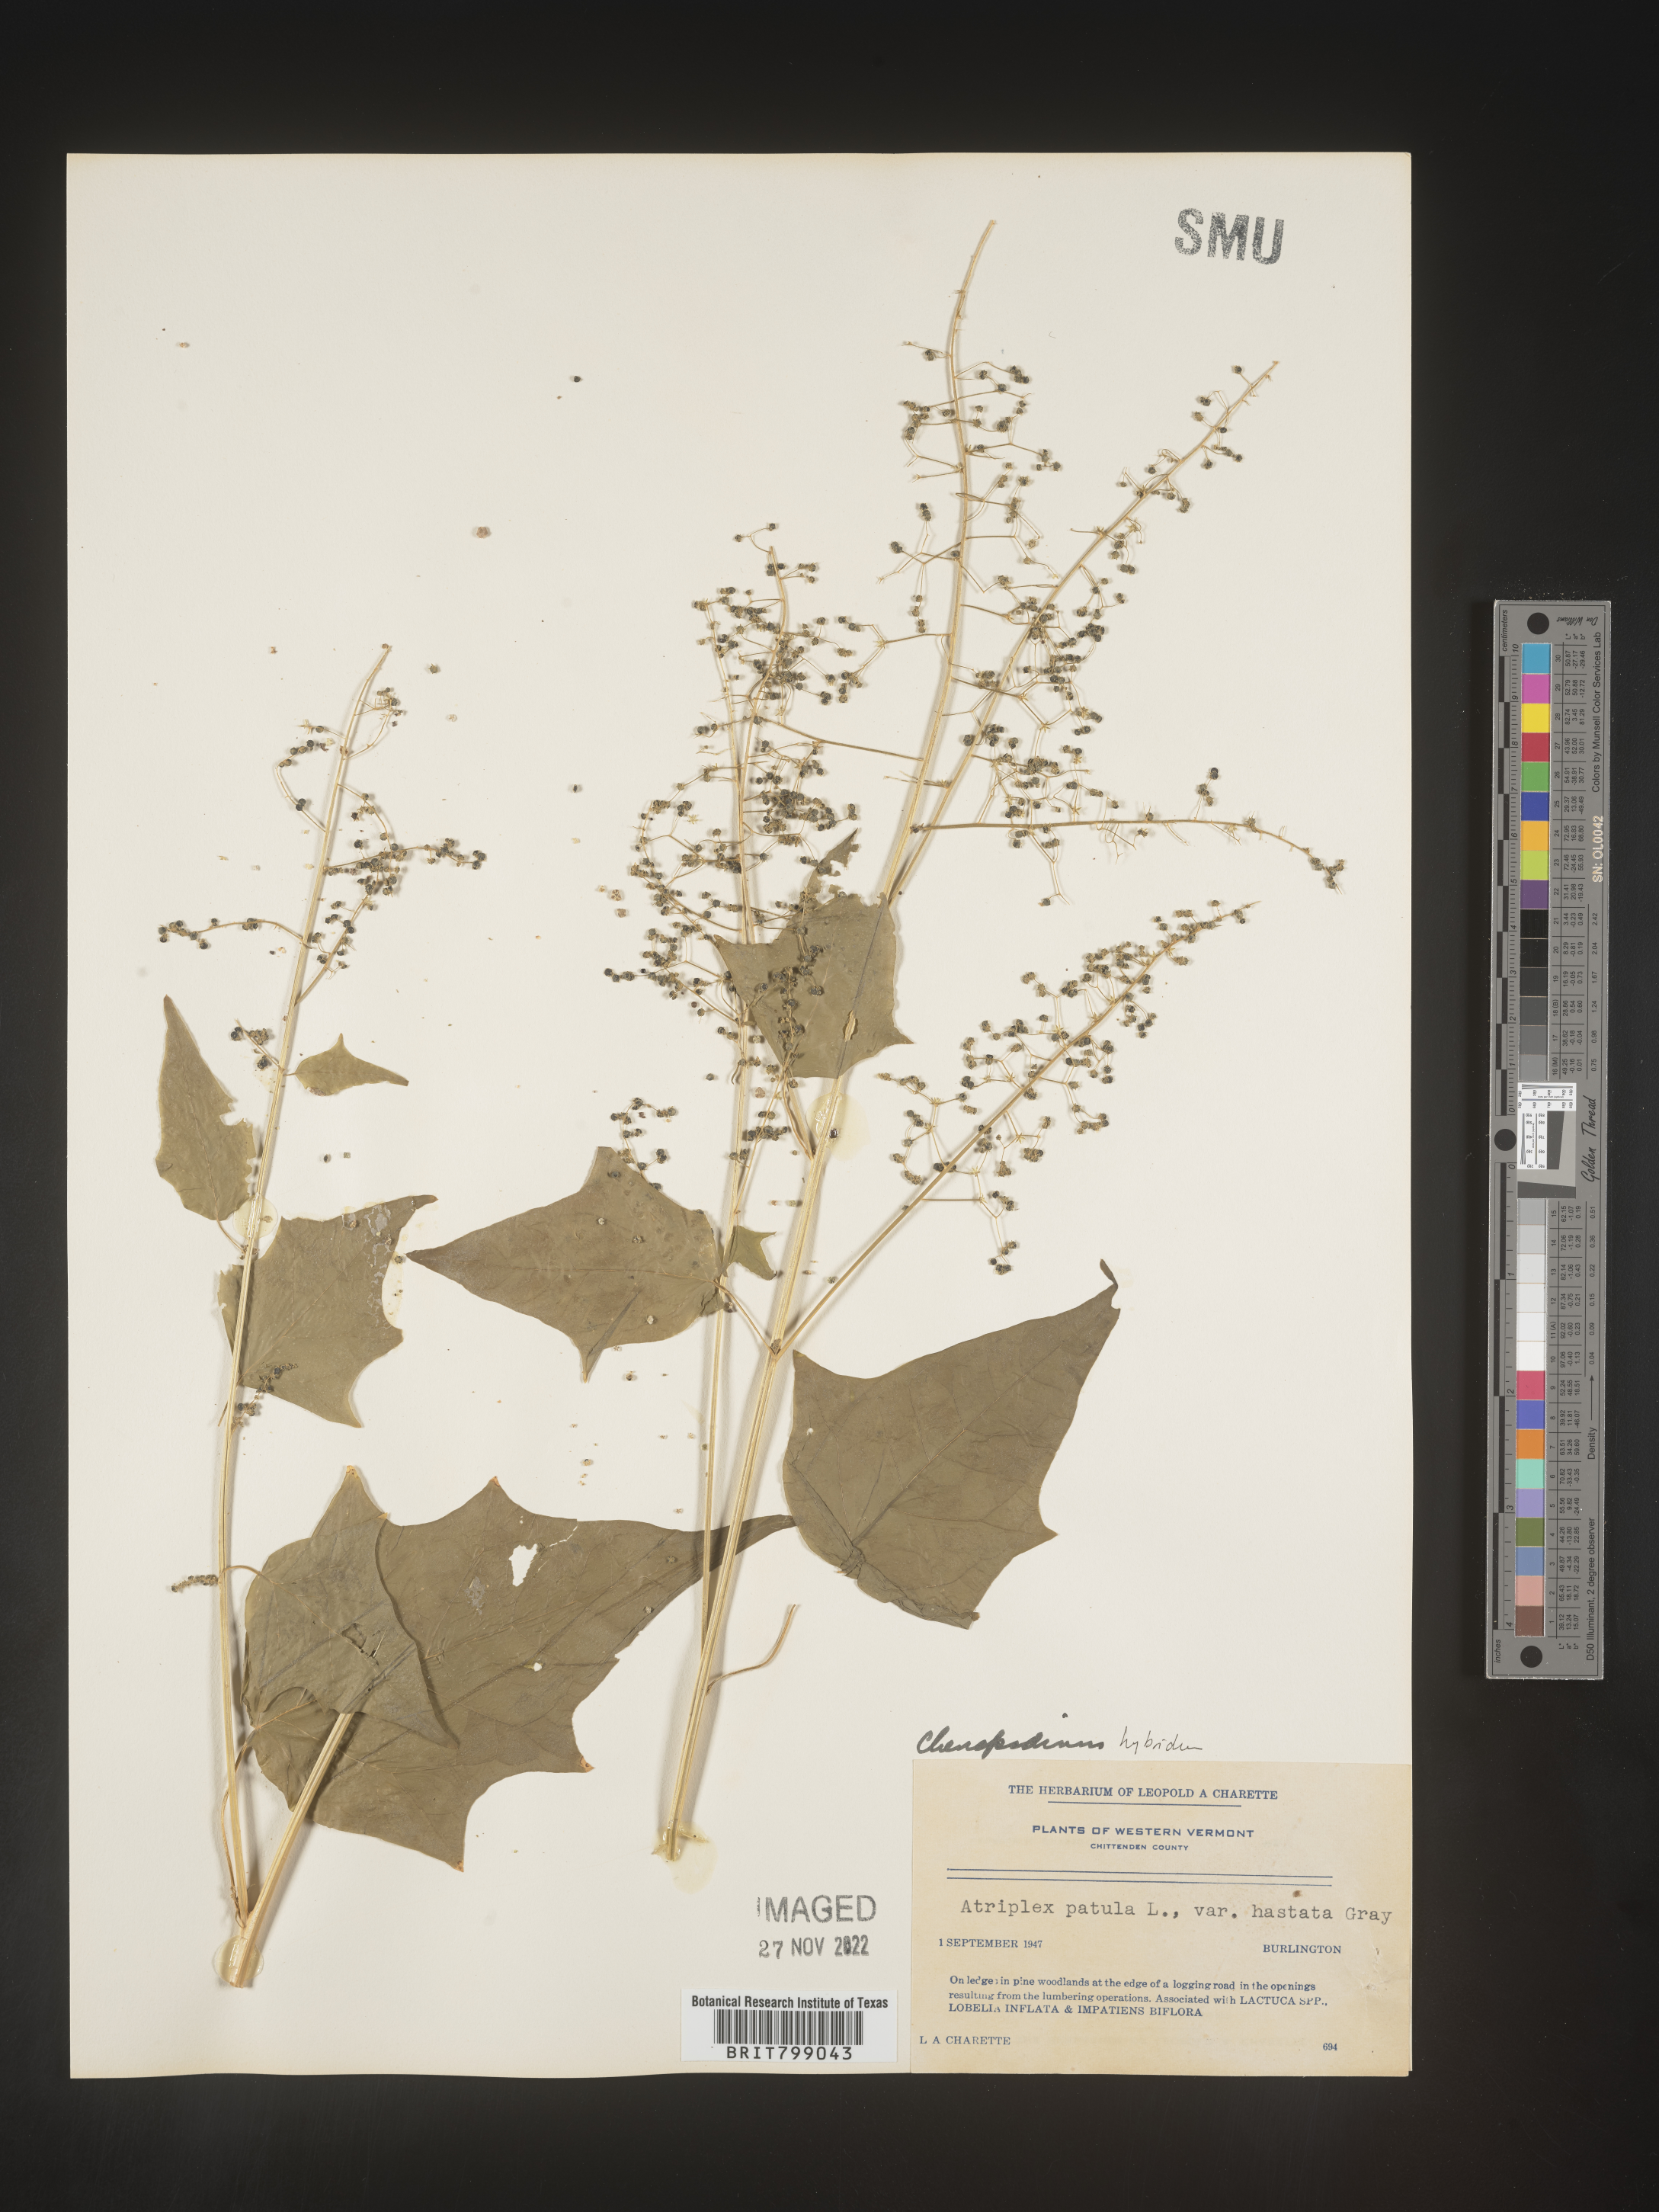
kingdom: Plantae
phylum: Tracheophyta
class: Magnoliopsida
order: Caryophyllales
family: Amaranthaceae
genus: Chenopodium
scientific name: Chenopodium
